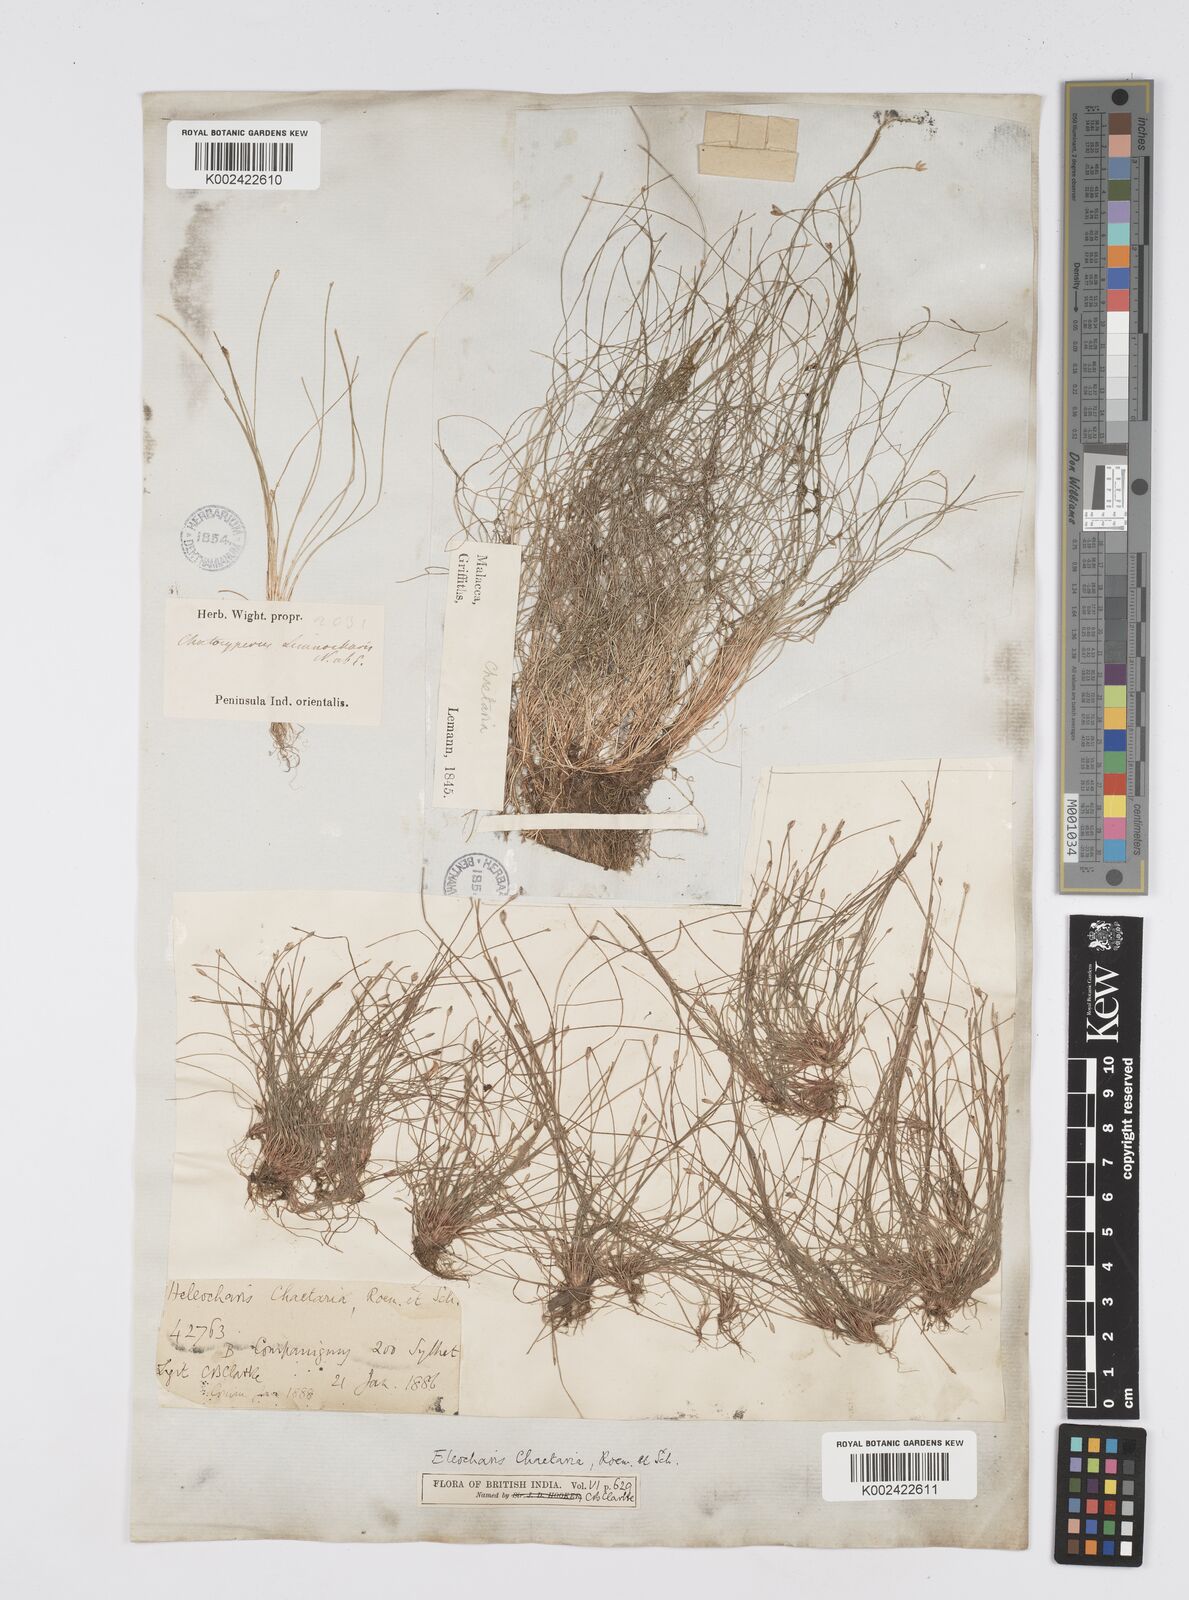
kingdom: Plantae
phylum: Tracheophyta
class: Liliopsida
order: Poales
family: Cyperaceae
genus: Eleocharis
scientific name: Eleocharis retroflexa
